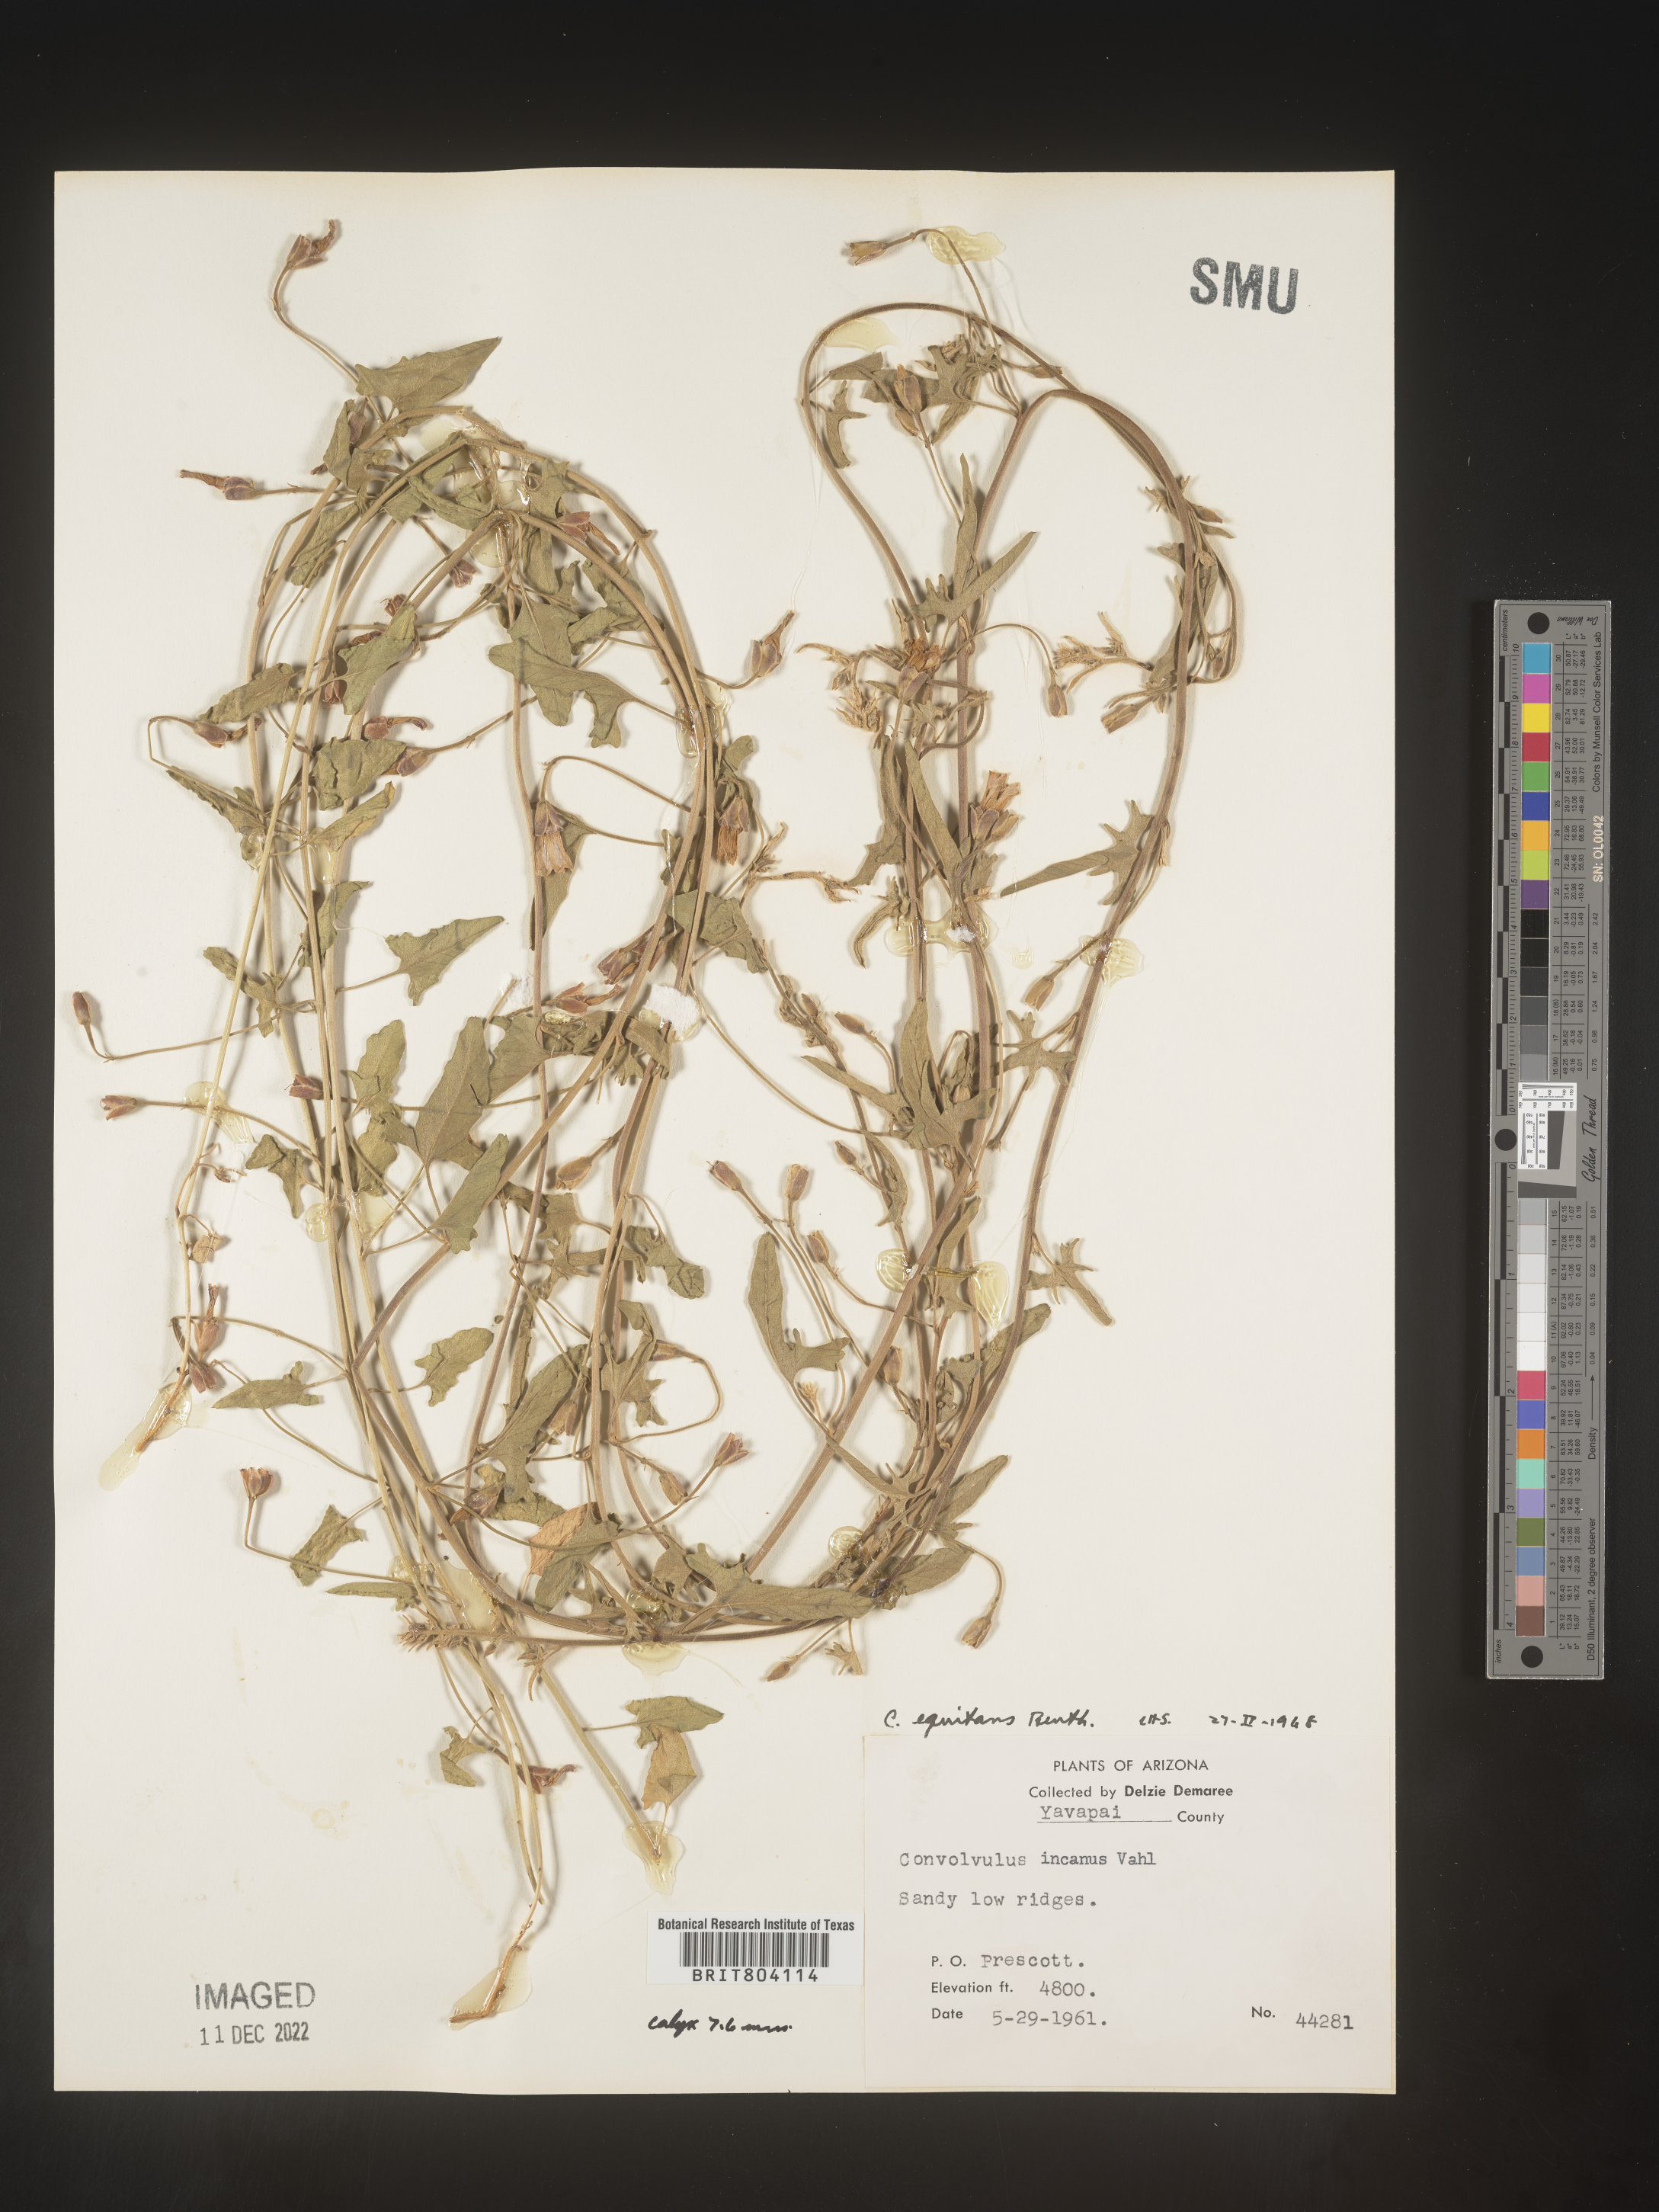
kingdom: Plantae
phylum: Tracheophyta
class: Magnoliopsida
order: Solanales
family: Convolvulaceae
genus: Convolvulus
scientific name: Convolvulus equitans
